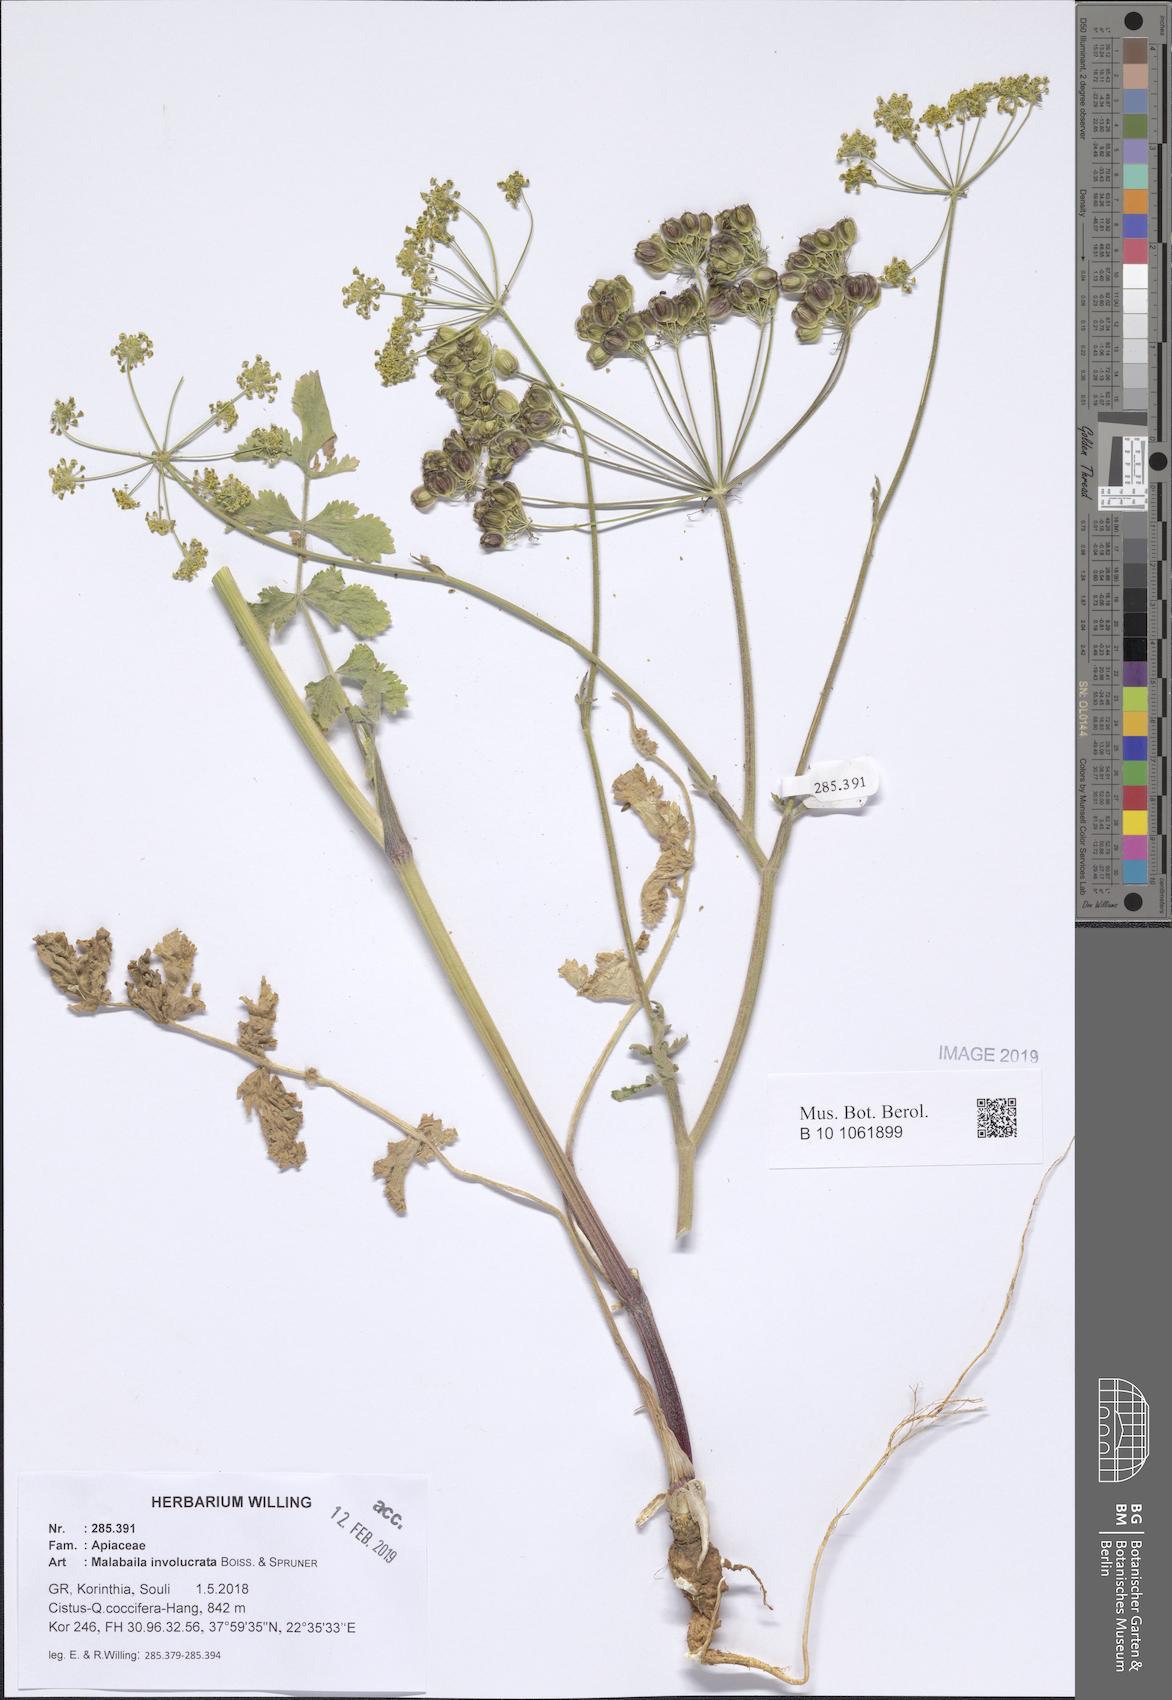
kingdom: Plantae
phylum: Tracheophyta
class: Magnoliopsida
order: Apiales
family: Apiaceae
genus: Leiotulus
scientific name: Leiotulus involucratus
